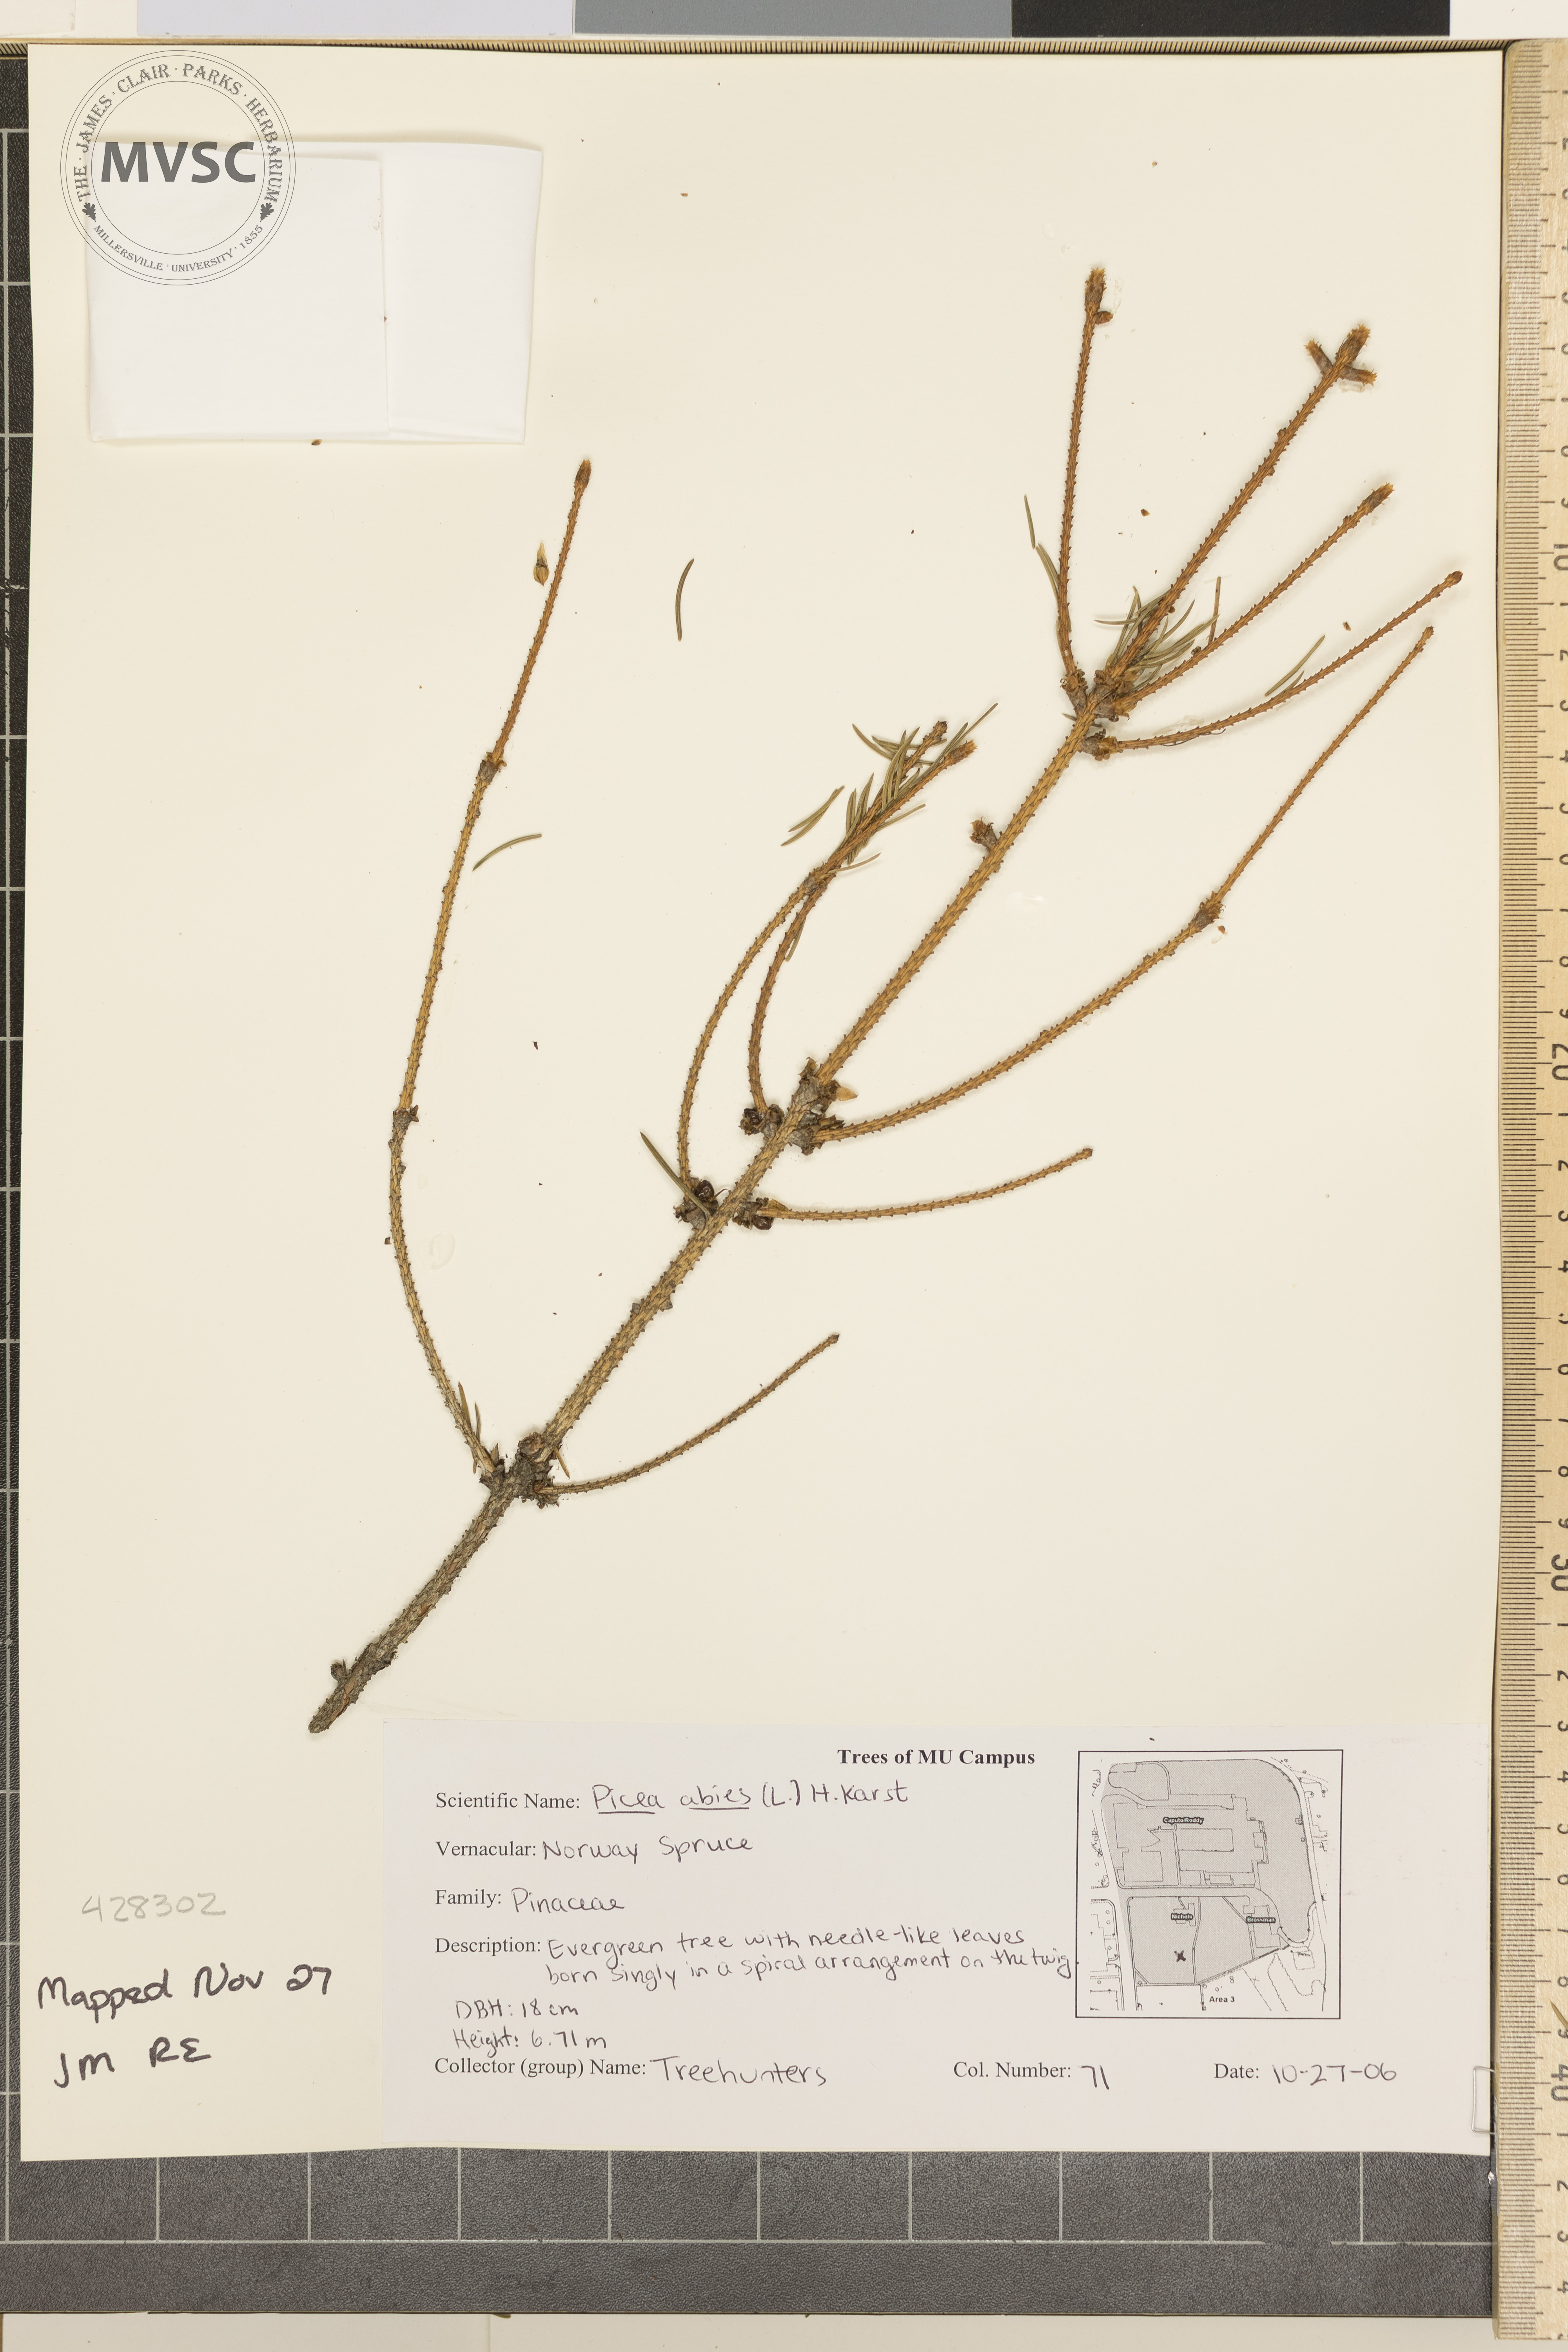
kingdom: Plantae
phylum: Tracheophyta
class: Pinopsida
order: Pinales
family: Pinaceae
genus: Picea
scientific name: Picea abies
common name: Norway Spruce
